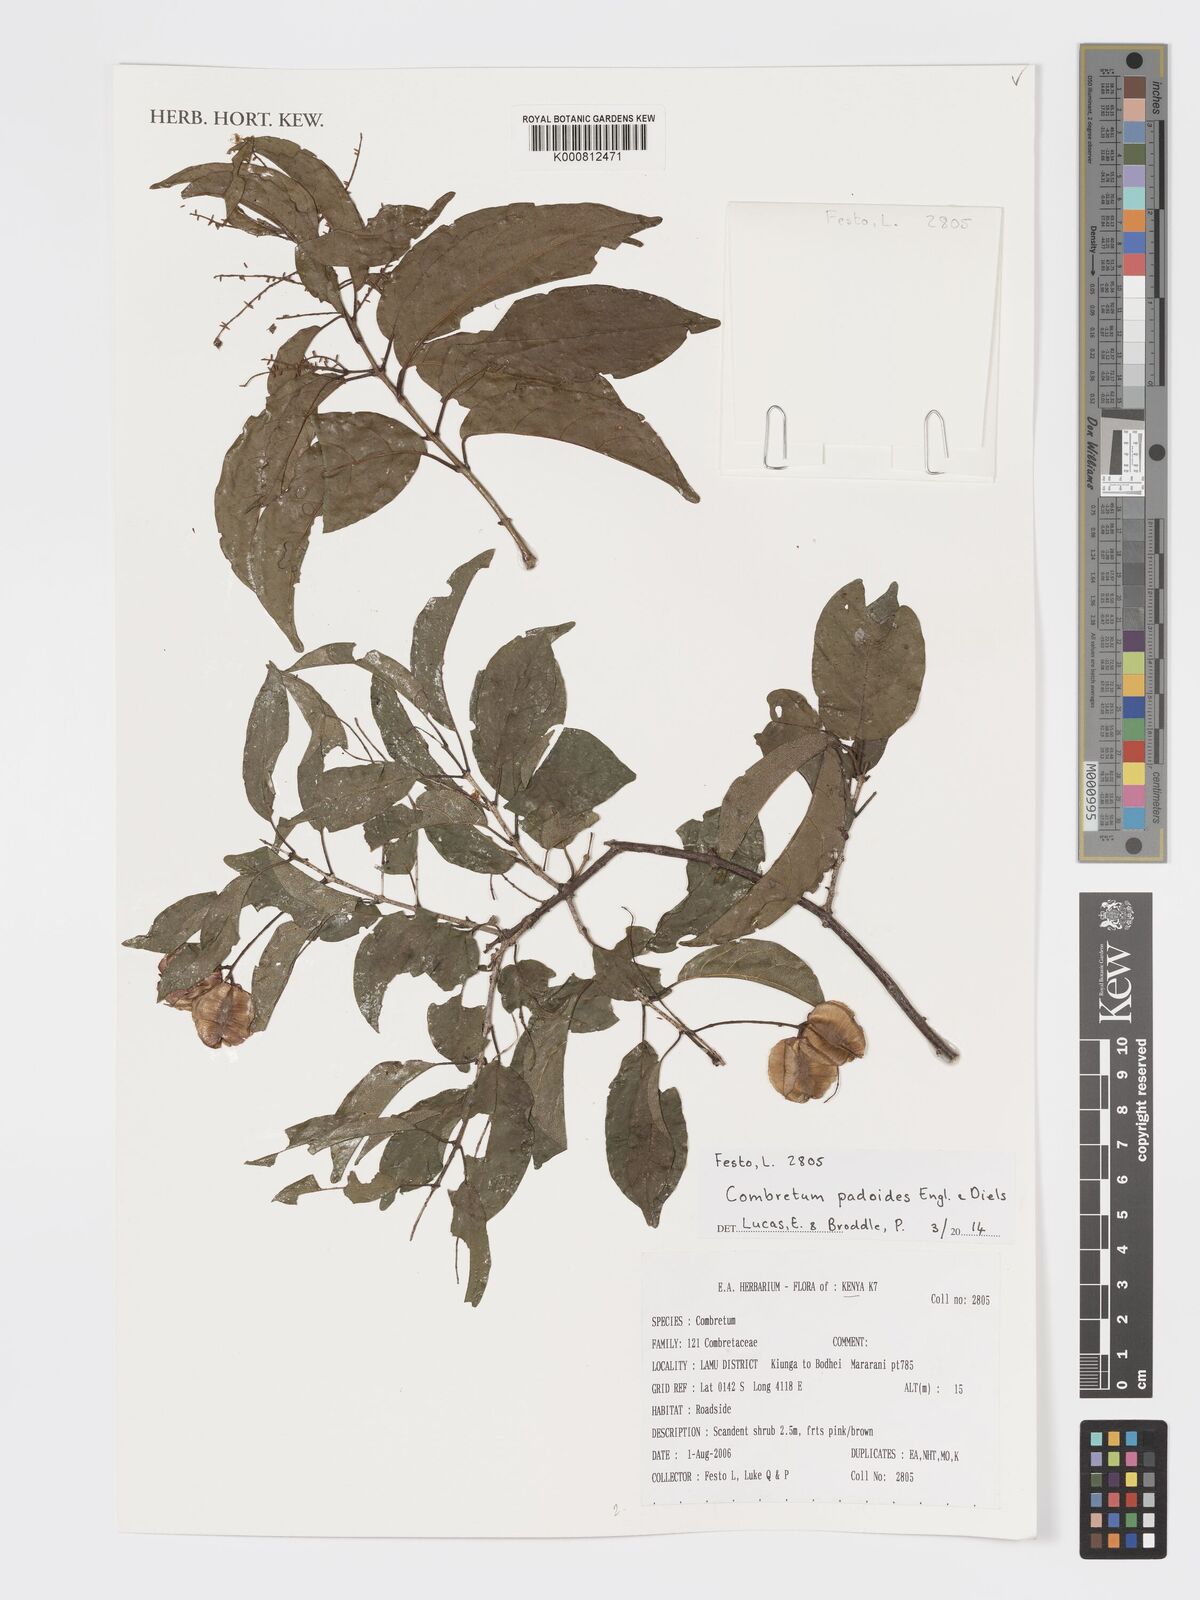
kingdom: Plantae
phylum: Tracheophyta
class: Magnoliopsida
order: Myrtales
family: Combretaceae
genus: Combretum
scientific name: Combretum padoides
